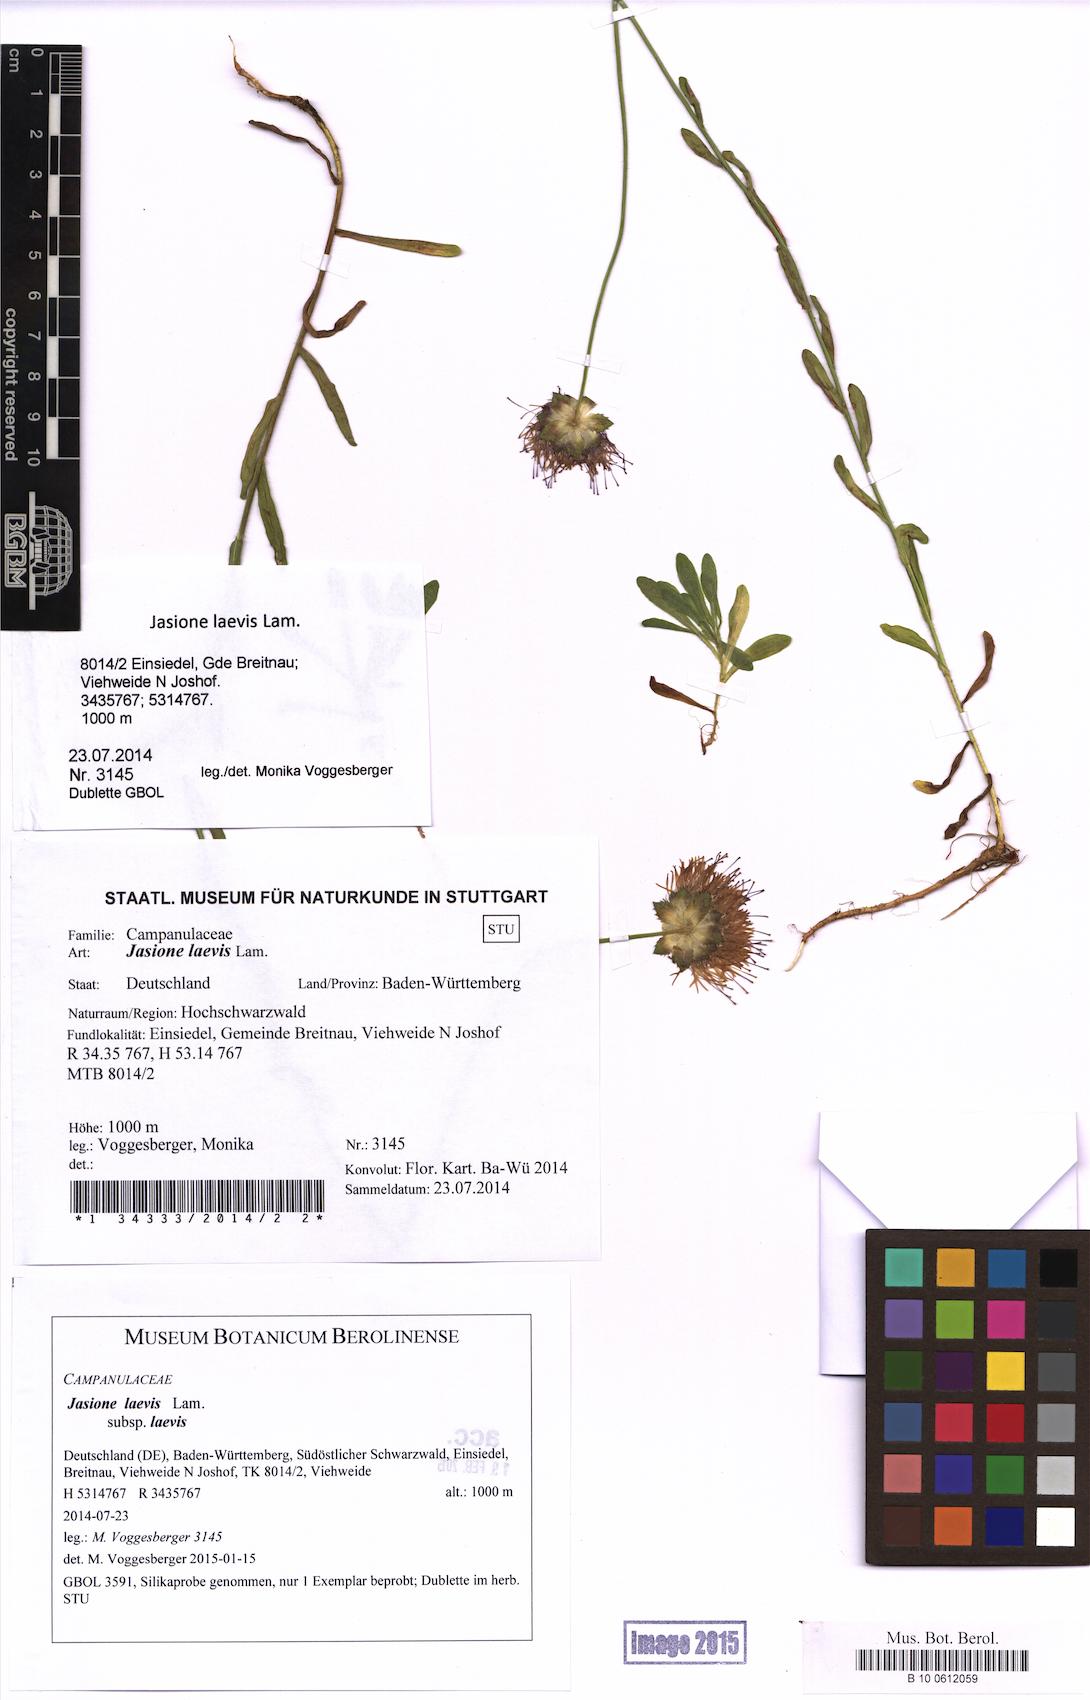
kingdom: Plantae
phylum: Tracheophyta
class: Magnoliopsida
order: Asterales
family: Campanulaceae
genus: Jasione
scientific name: Jasione laevis
